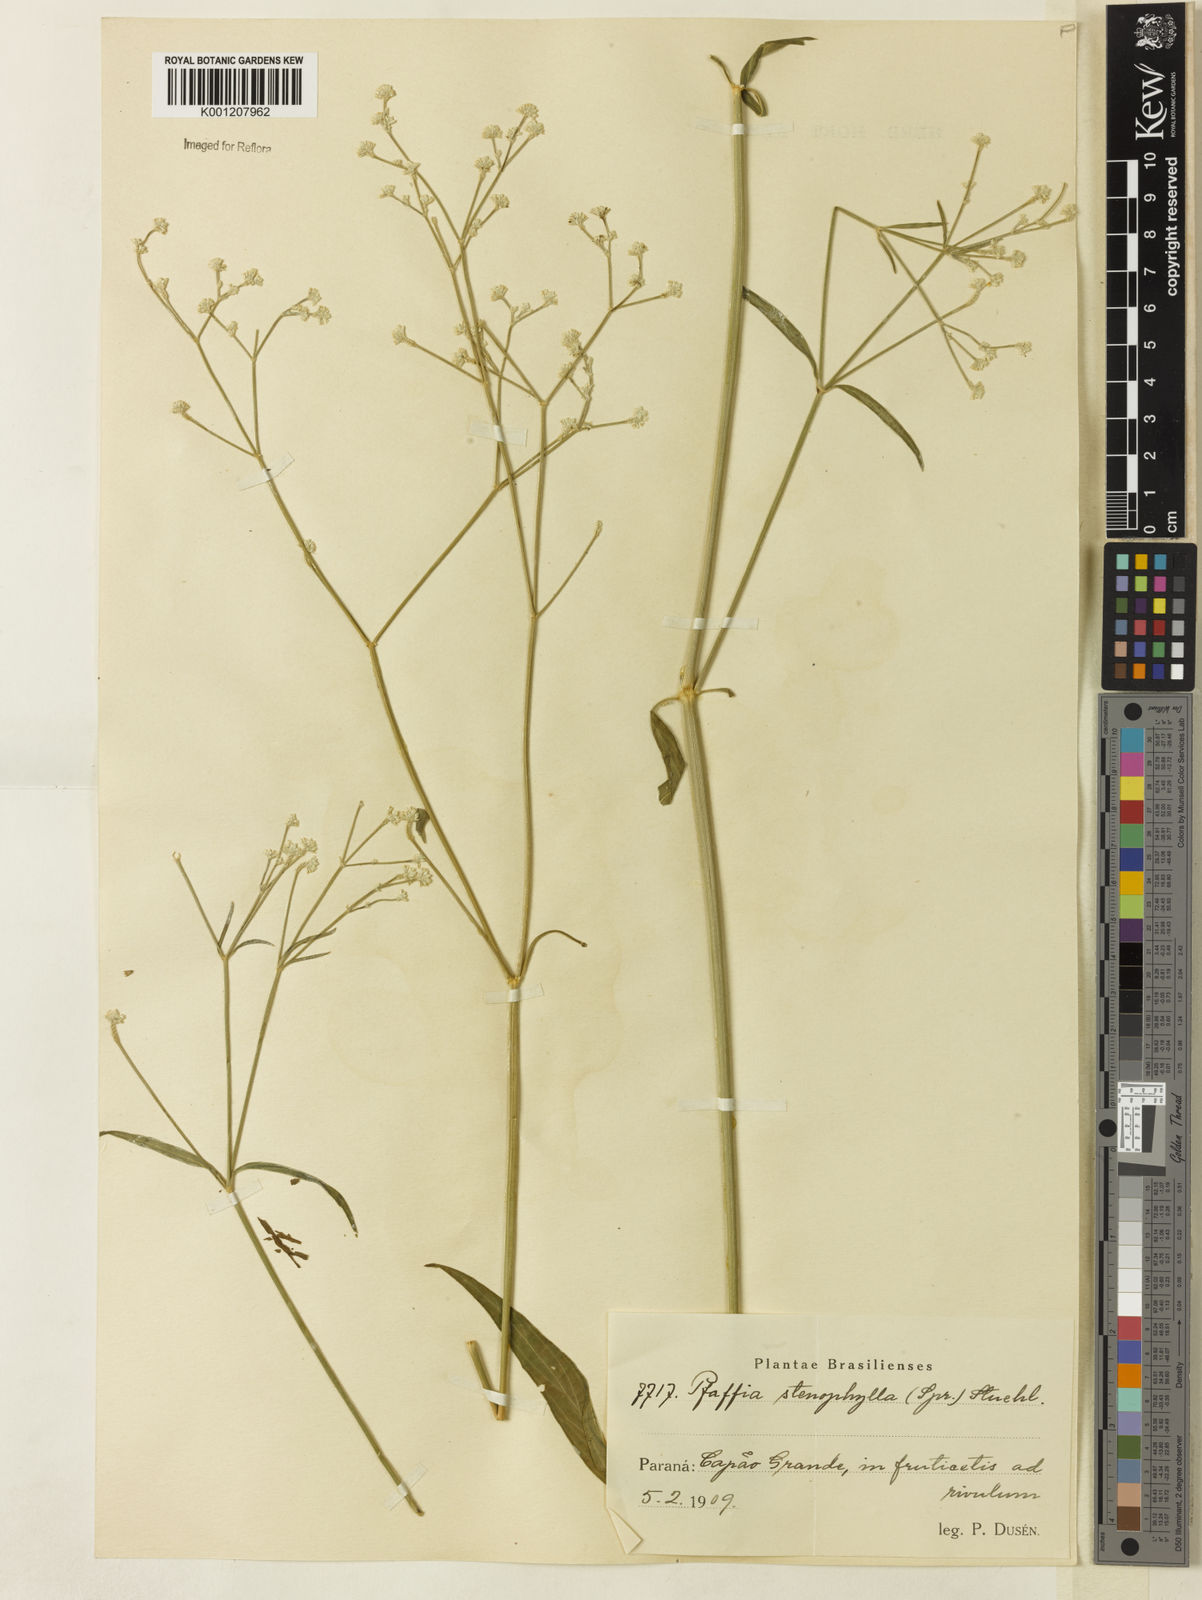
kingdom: Plantae
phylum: Tracheophyta
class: Magnoliopsida
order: Caryophyllales
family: Amaranthaceae
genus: Pfaffia
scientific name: Pfaffia
